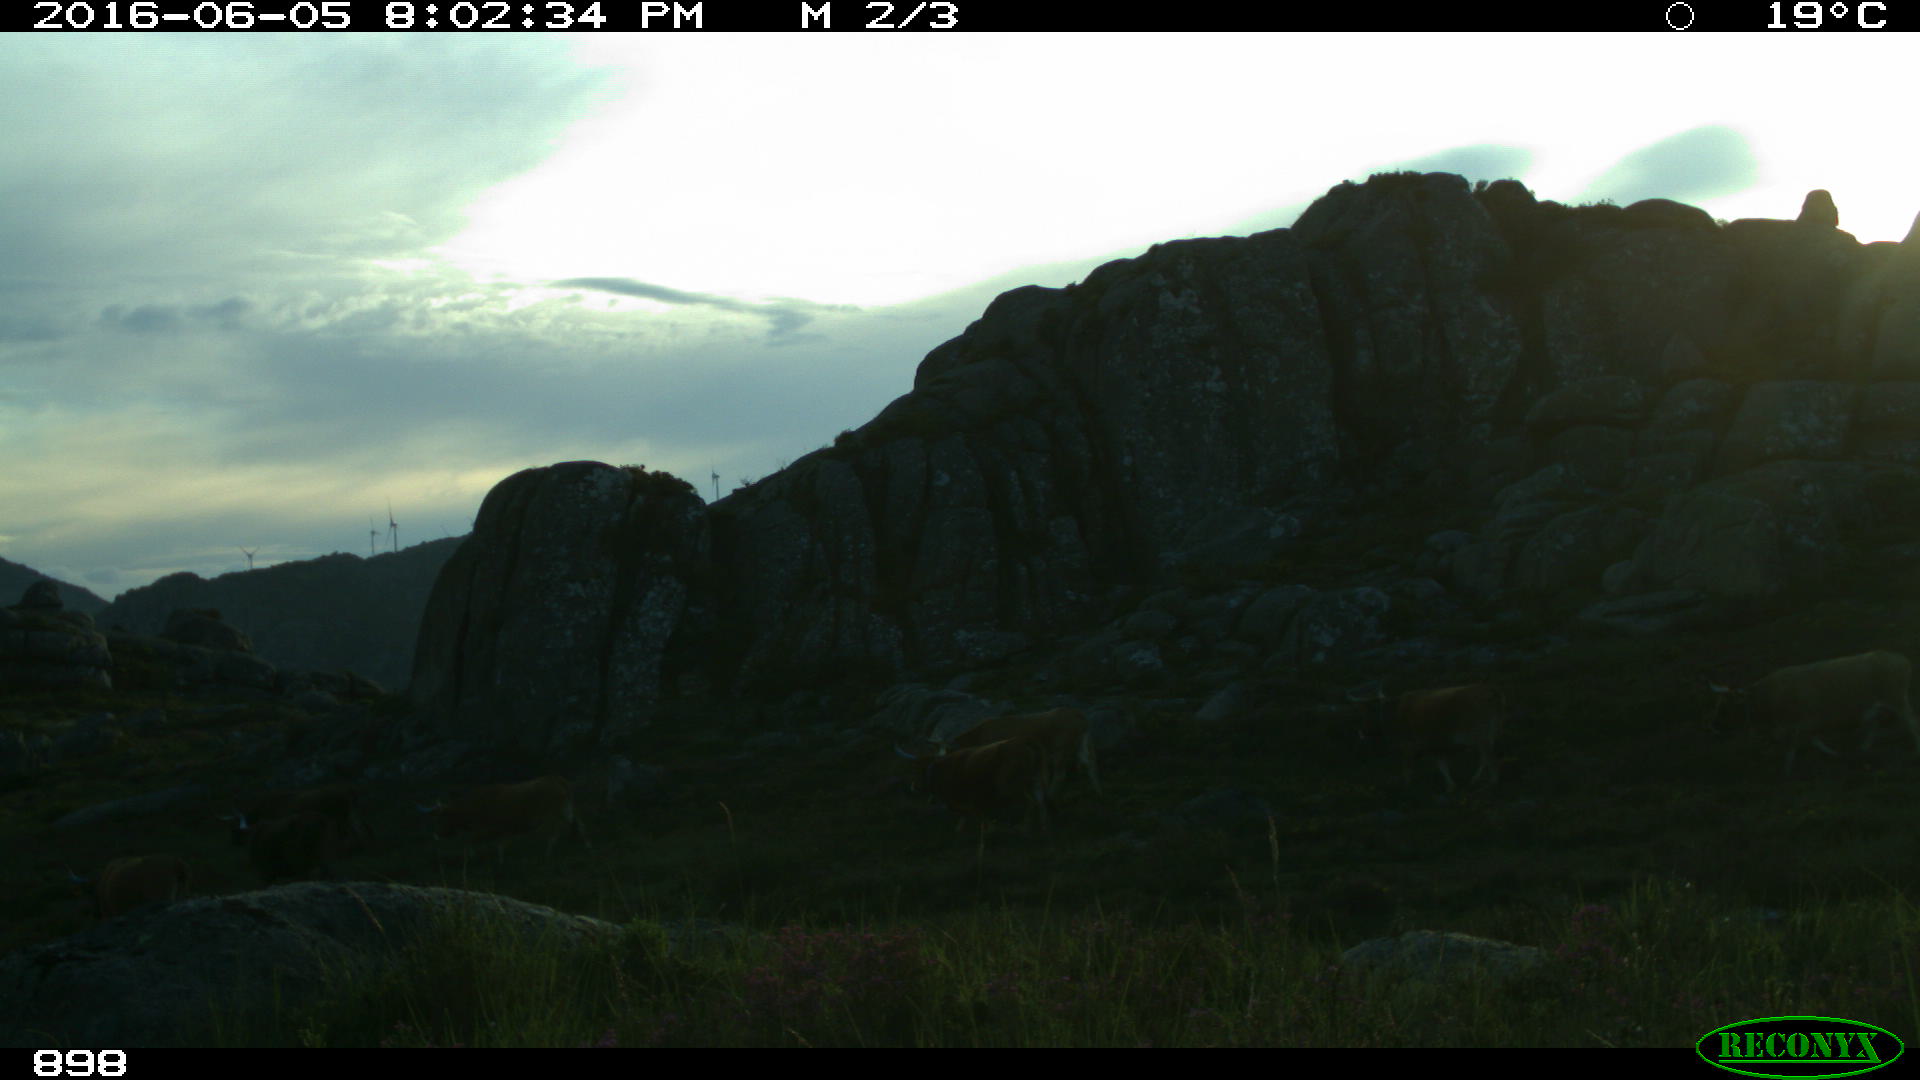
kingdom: Animalia
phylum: Chordata
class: Mammalia
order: Artiodactyla
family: Bovidae
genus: Bos
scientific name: Bos taurus
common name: Domesticated cattle
